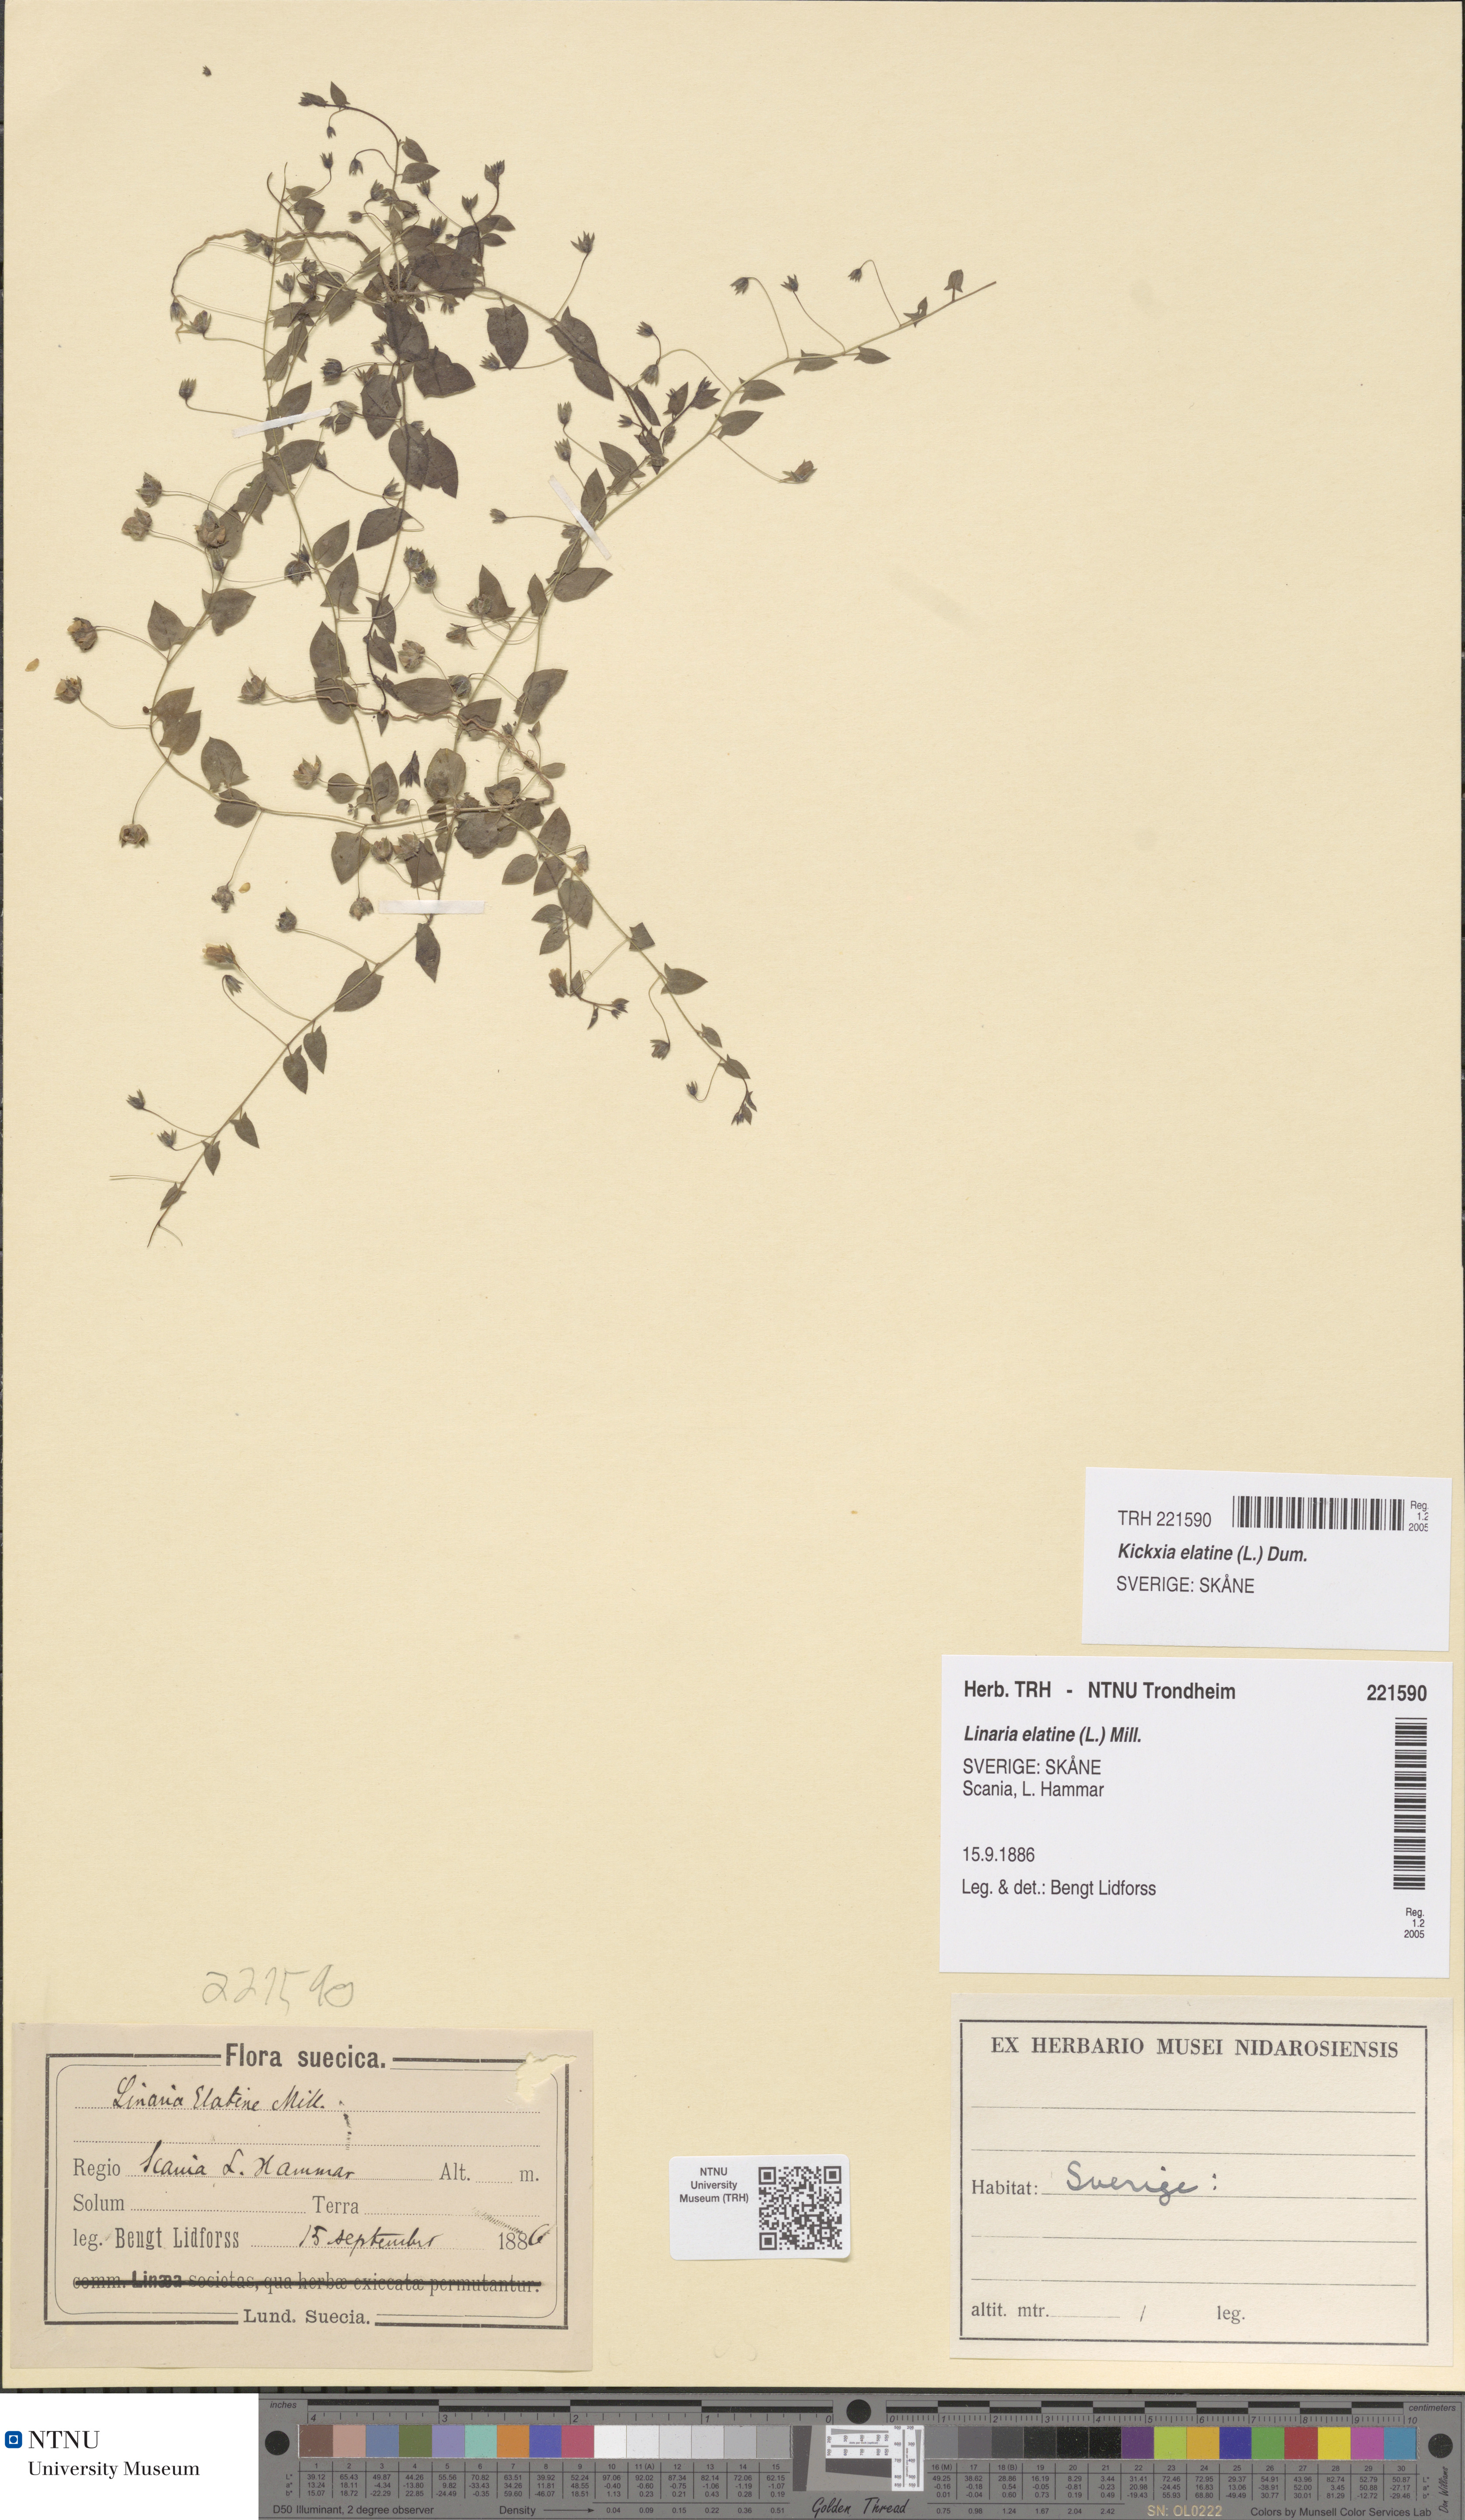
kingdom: Plantae
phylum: Tracheophyta
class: Magnoliopsida
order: Lamiales
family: Plantaginaceae
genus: Kickxia
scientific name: Kickxia elatine
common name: Sharp-leaved fluellen
